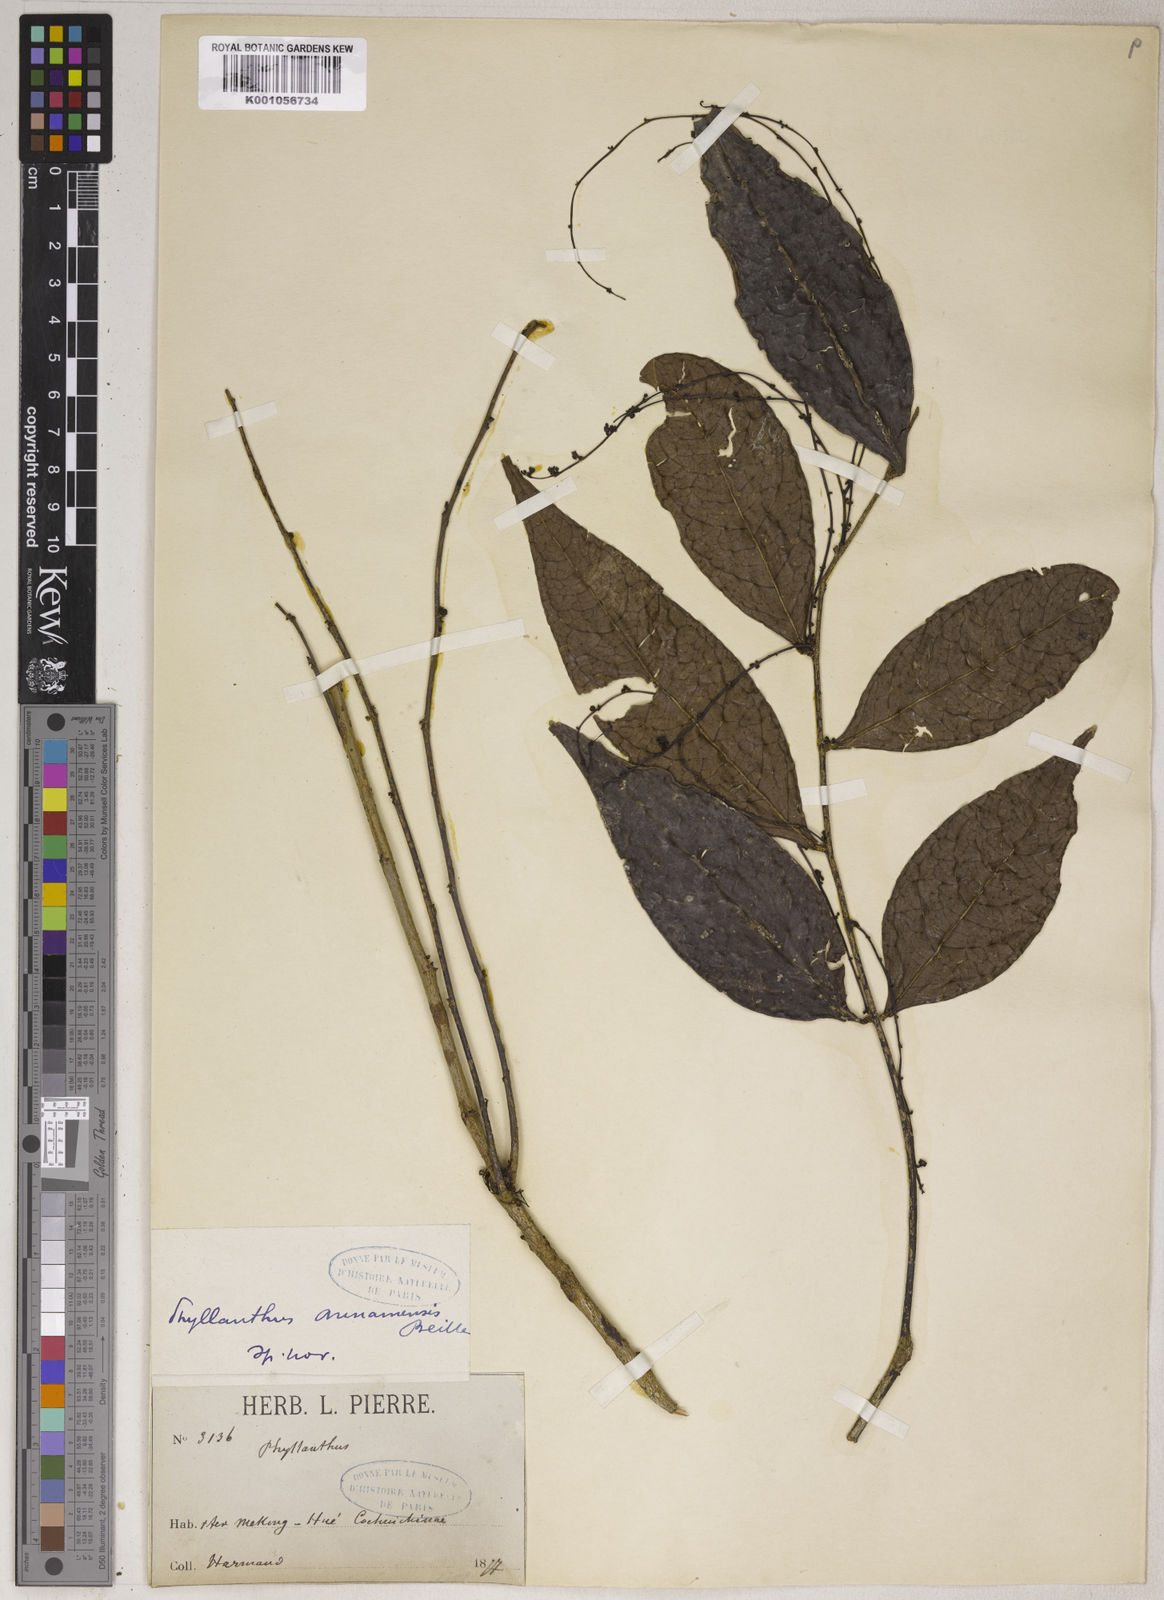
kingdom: Plantae
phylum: Tracheophyta
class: Magnoliopsida
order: Malpighiales
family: Phyllanthaceae
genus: Phyllanthus
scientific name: Phyllanthus
